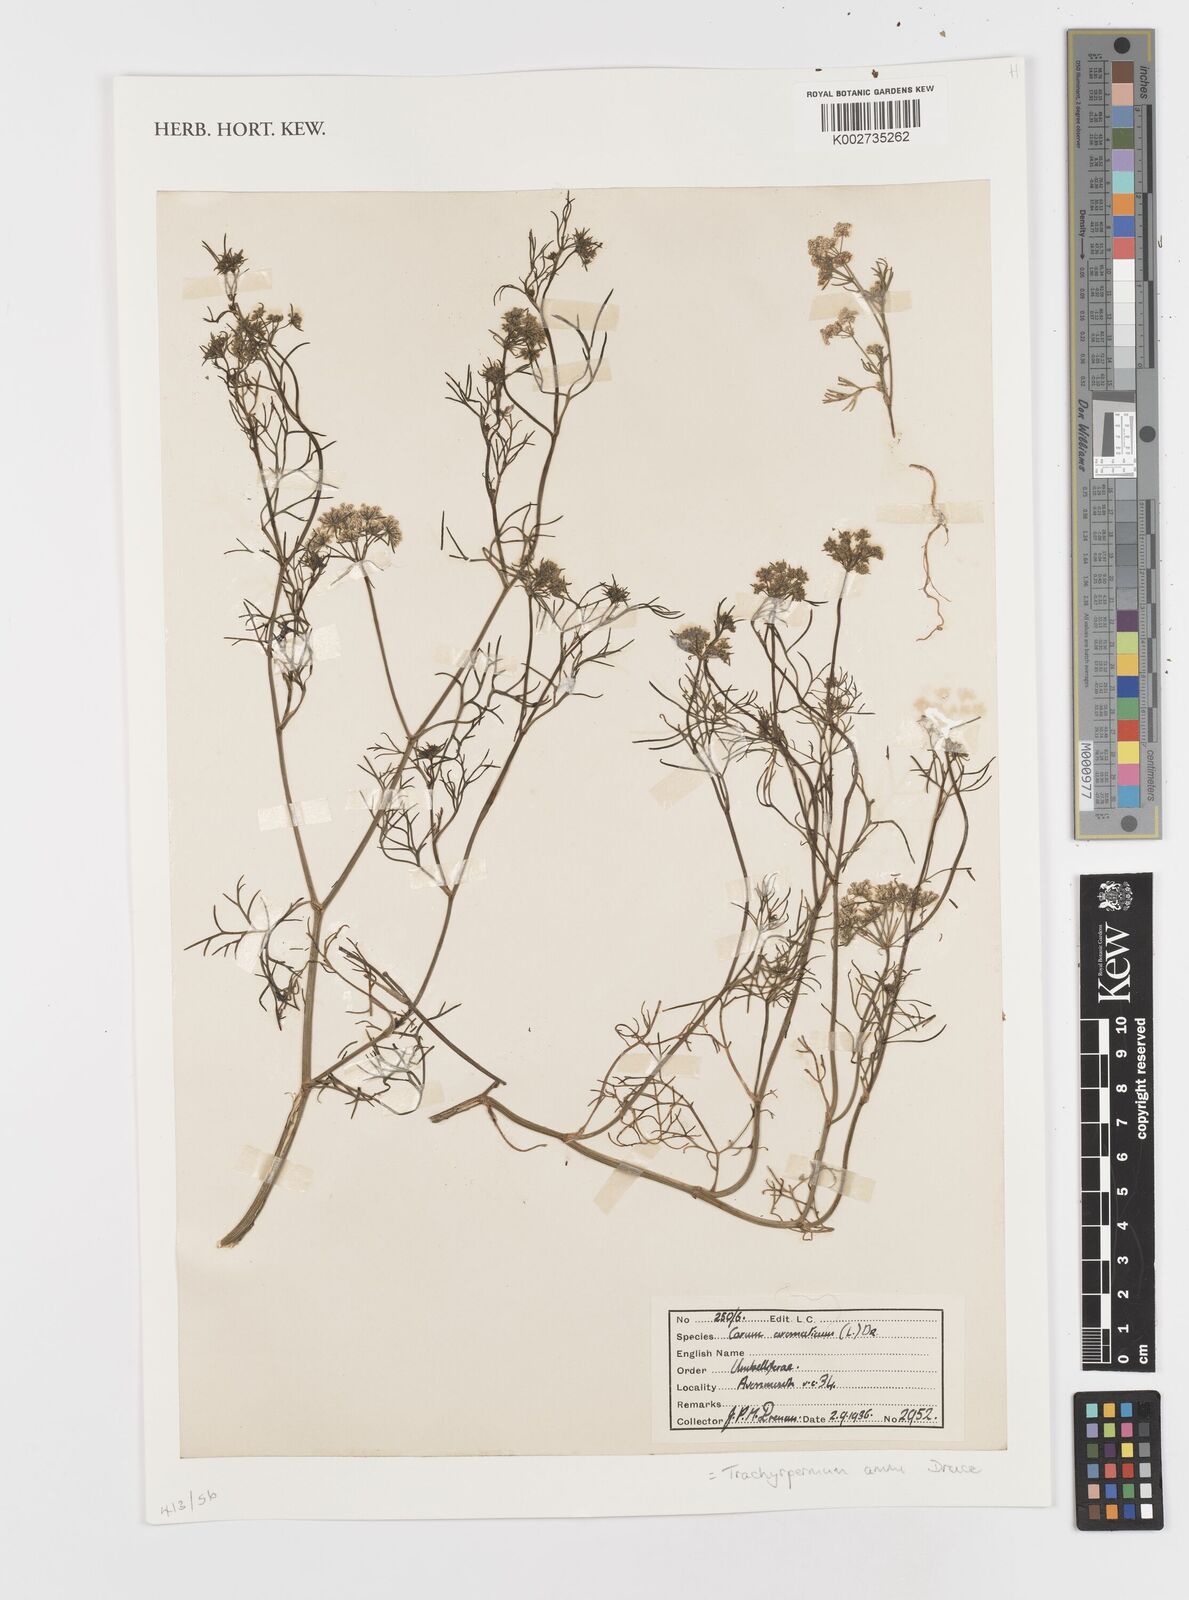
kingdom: Plantae
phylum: Tracheophyta
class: Magnoliopsida
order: Apiales
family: Apiaceae
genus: Trachyspermum
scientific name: Trachyspermum ammi
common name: Ajowan
